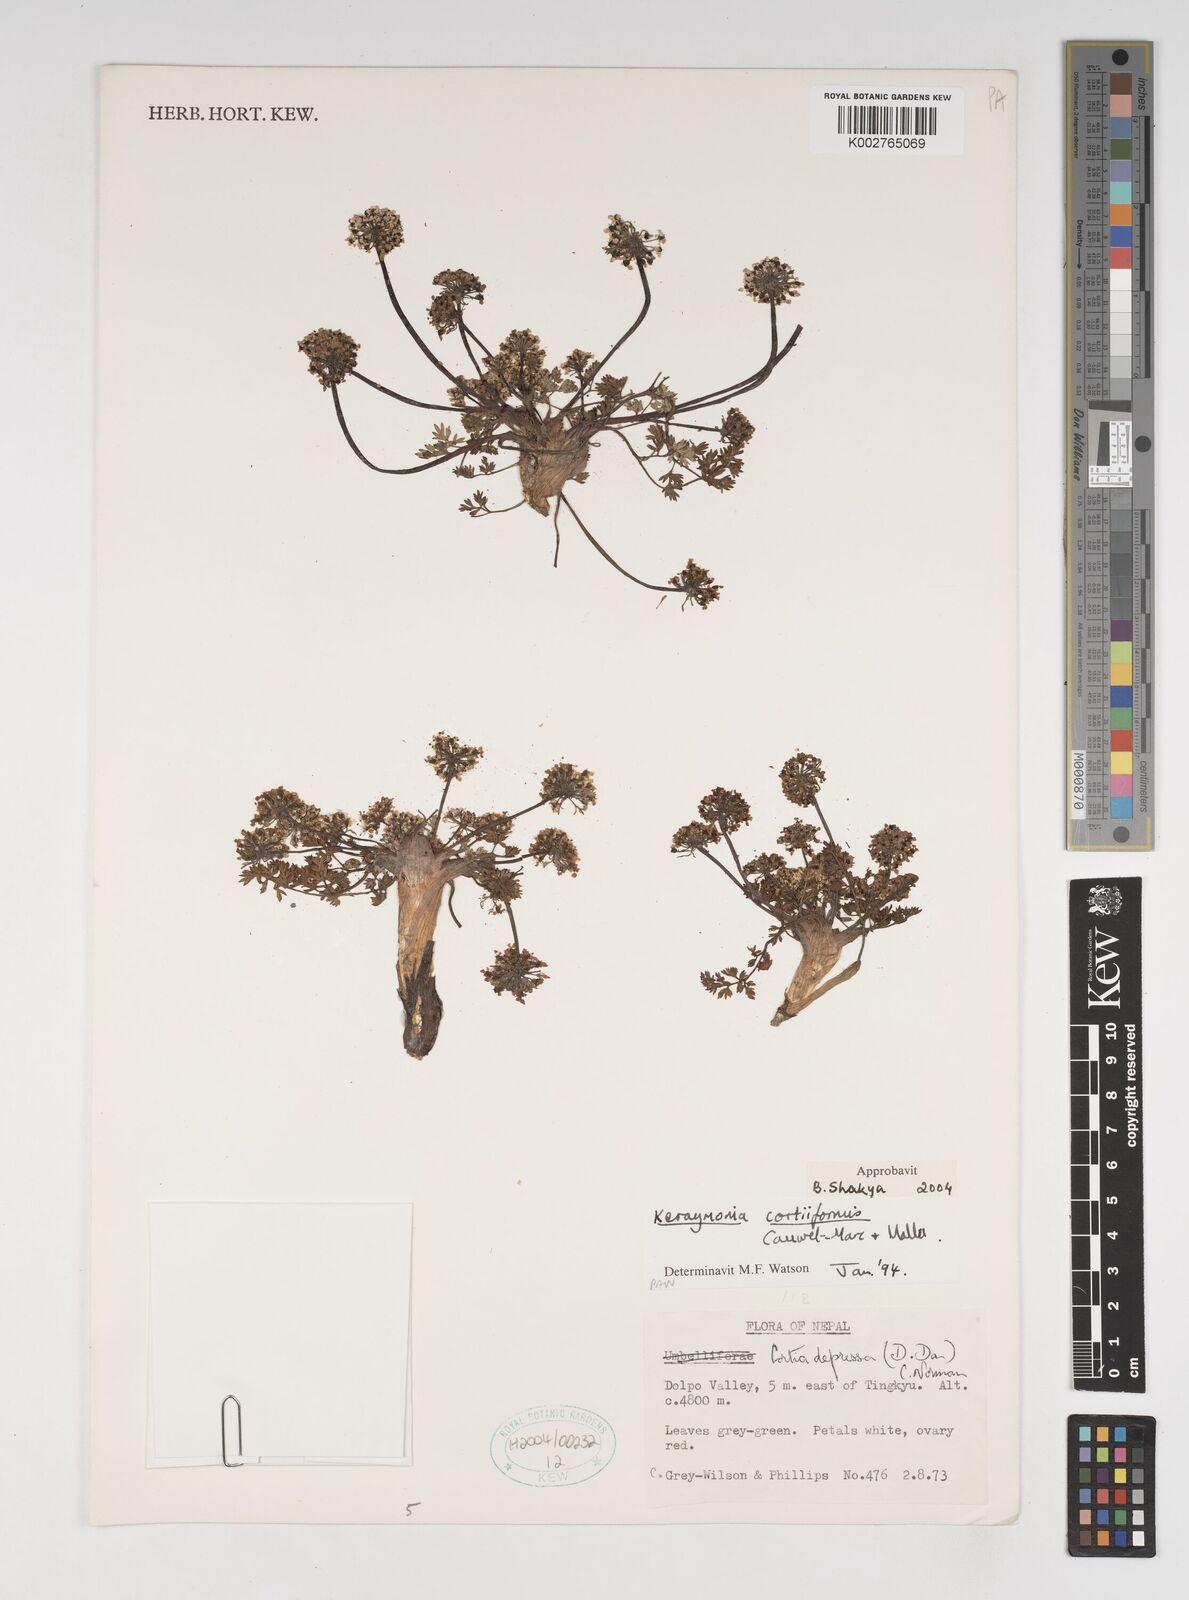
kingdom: Plantae
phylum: Tracheophyta
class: Magnoliopsida
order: Apiales
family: Apiaceae
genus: Keraymonia
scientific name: Keraymonia cortiformis
